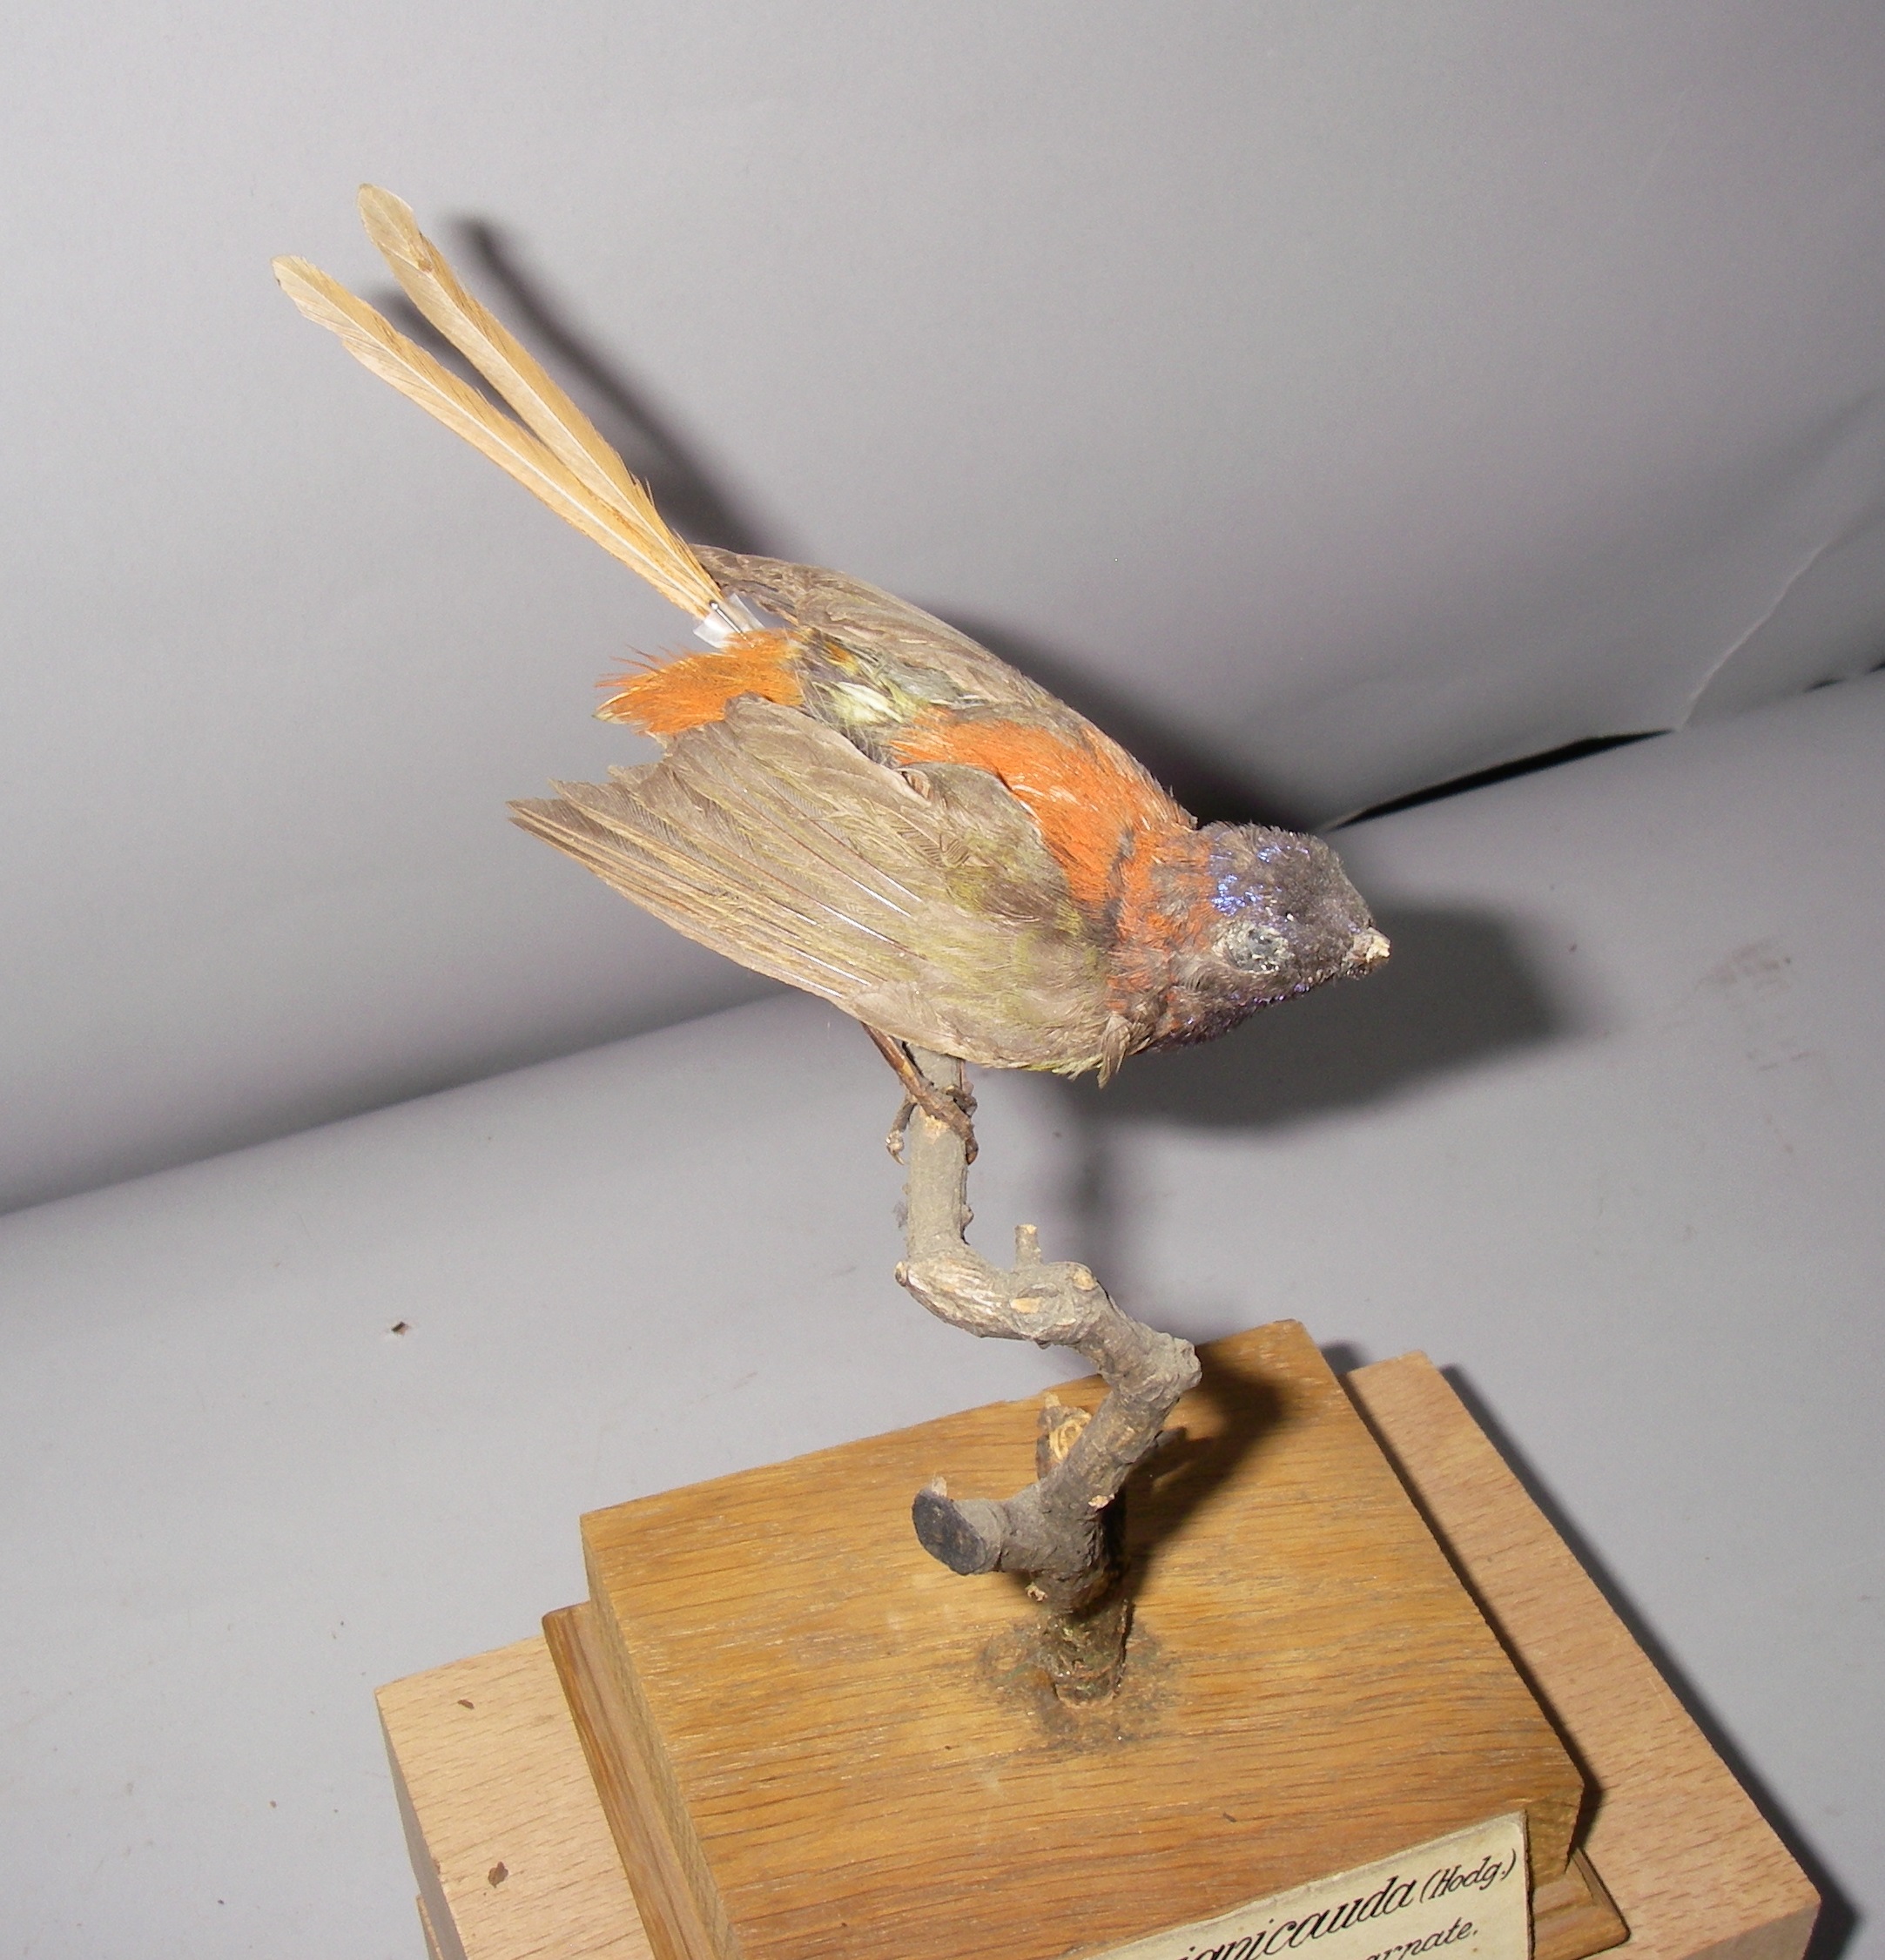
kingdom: Animalia
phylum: Chordata
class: Aves
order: Passeriformes
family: Nectariniidae
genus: Aethopyga
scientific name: Aethopyga ignicauda
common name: Fire-tailed sunbird
